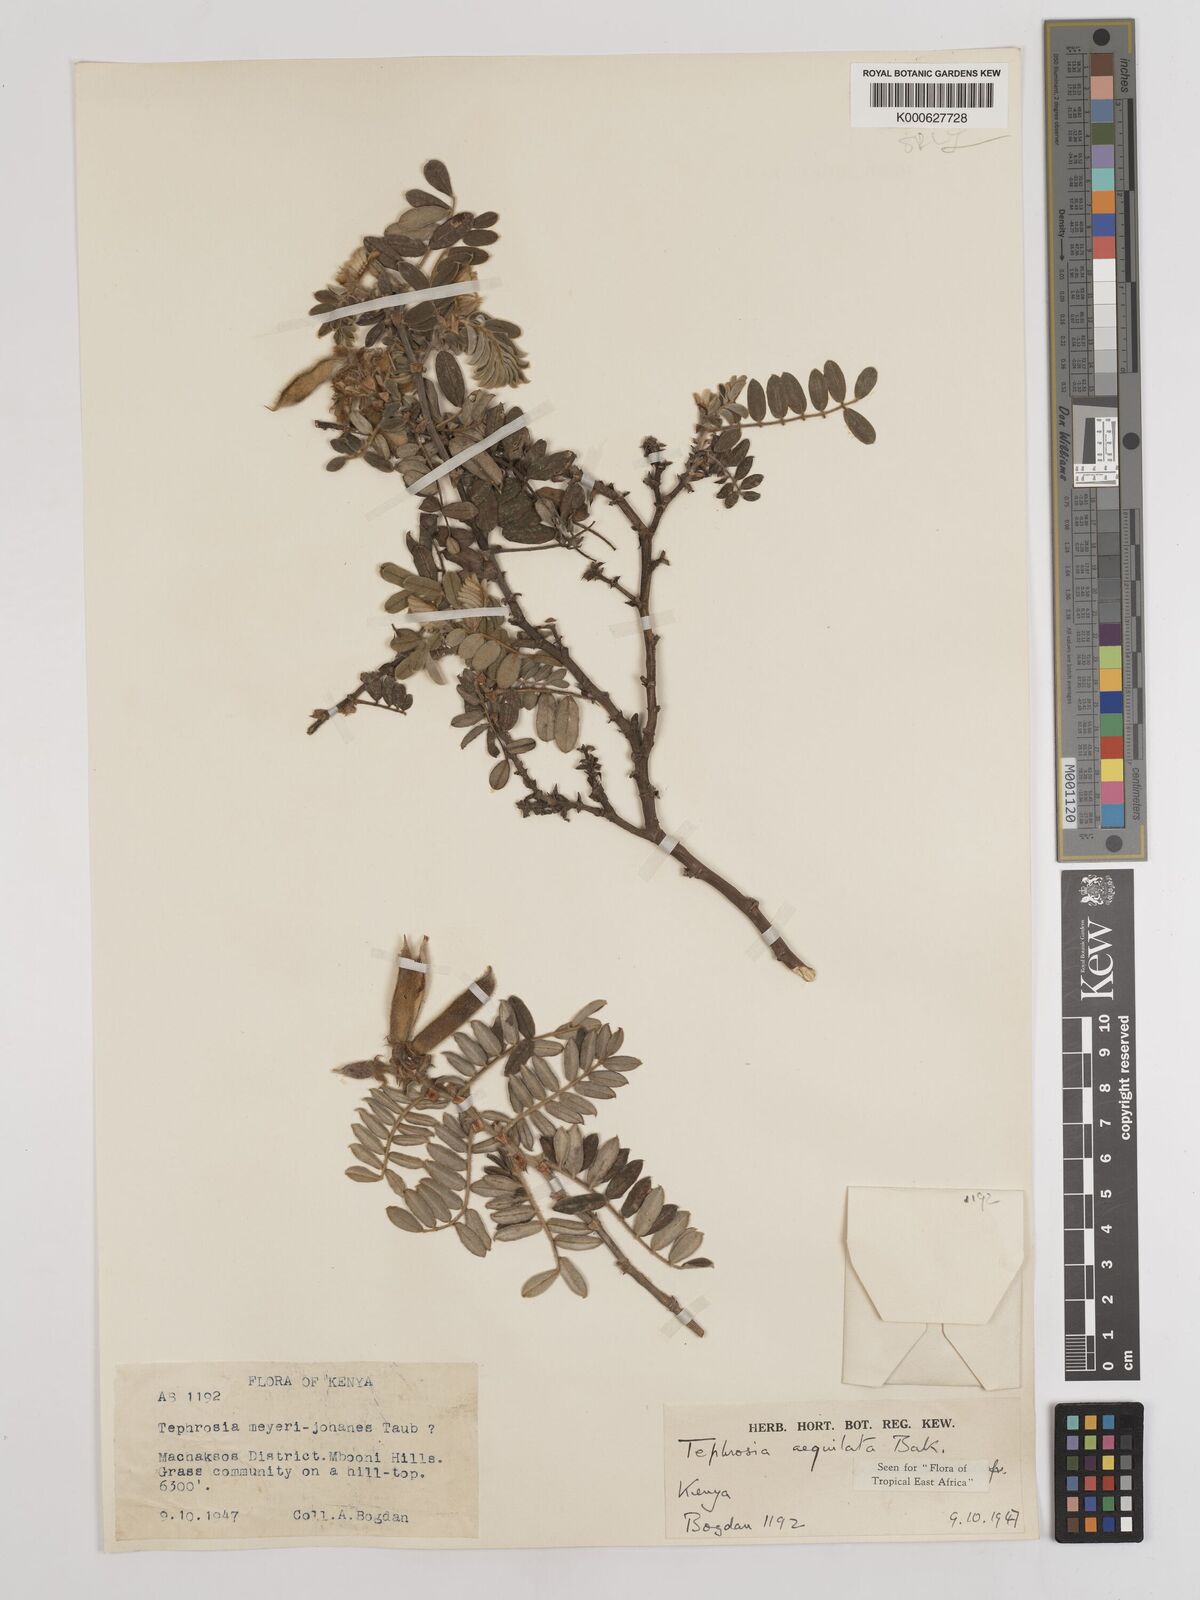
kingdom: Plantae
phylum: Tracheophyta
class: Magnoliopsida
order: Fabales
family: Fabaceae
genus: Tephrosia
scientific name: Tephrosia aequilata
